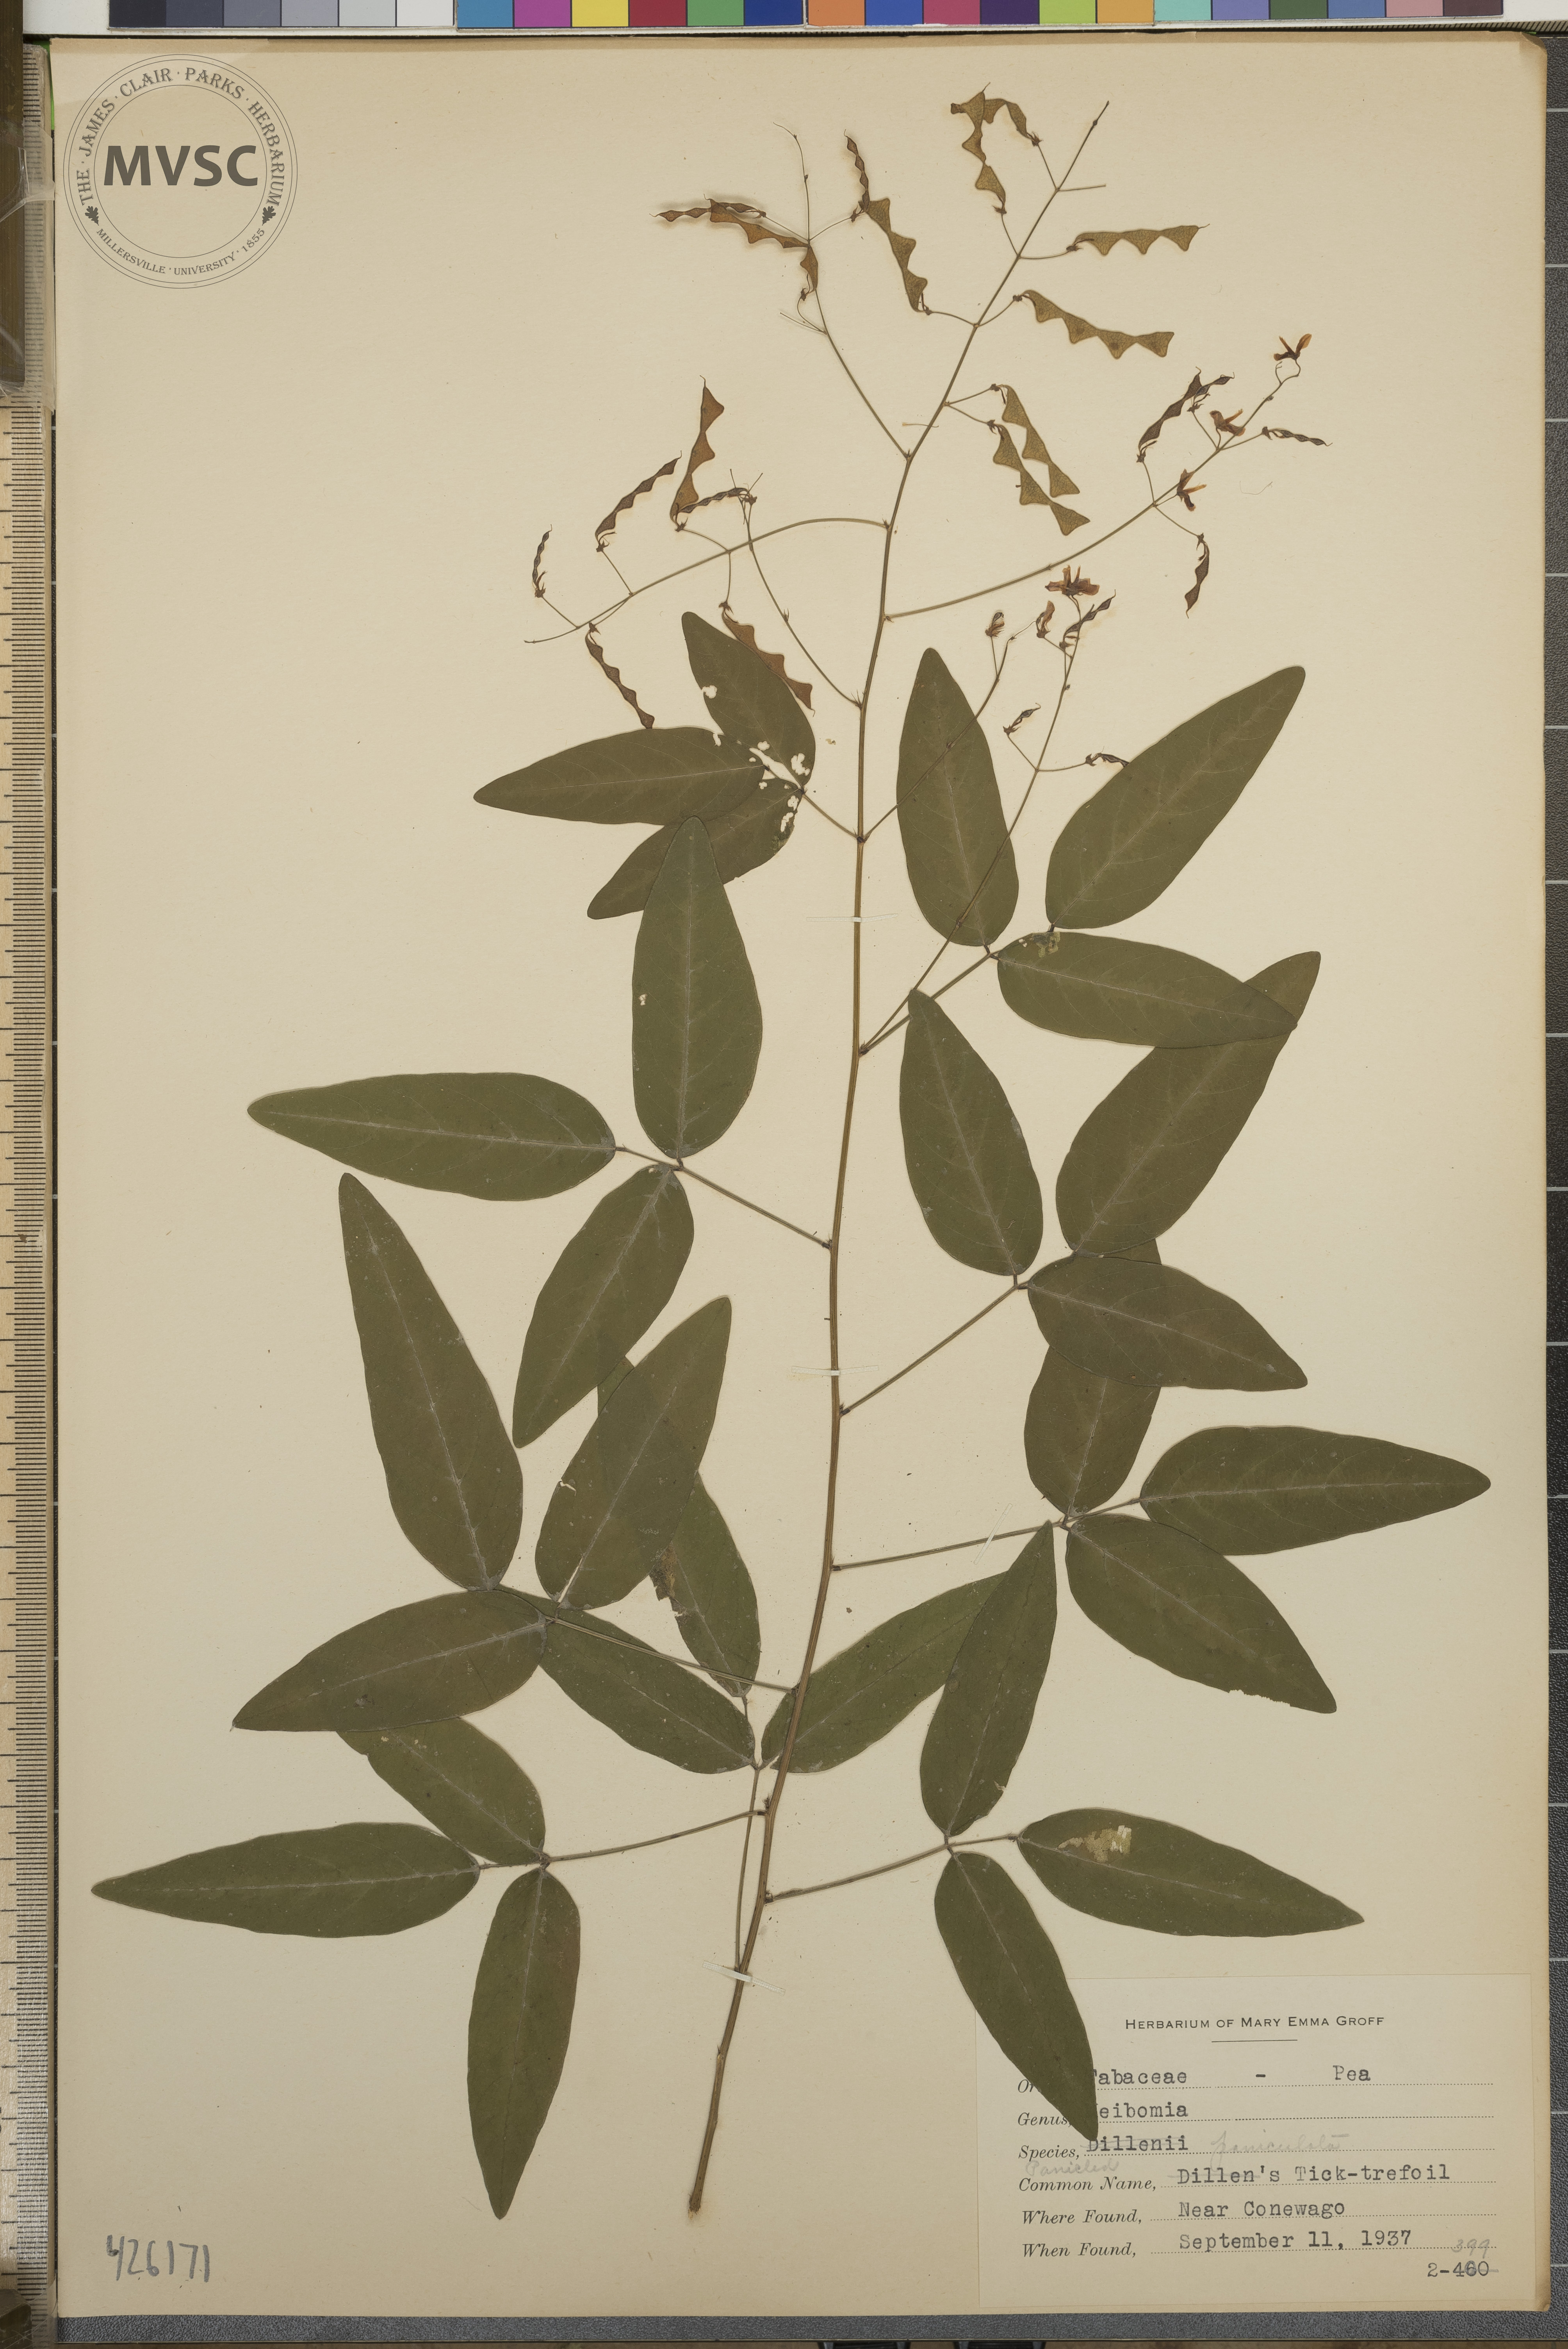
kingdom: Plantae
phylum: Tracheophyta
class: Magnoliopsida
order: Fabales
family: Fabaceae
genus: Desmodium
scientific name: Desmodium paniculatum
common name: Panicled tick-trefoil
